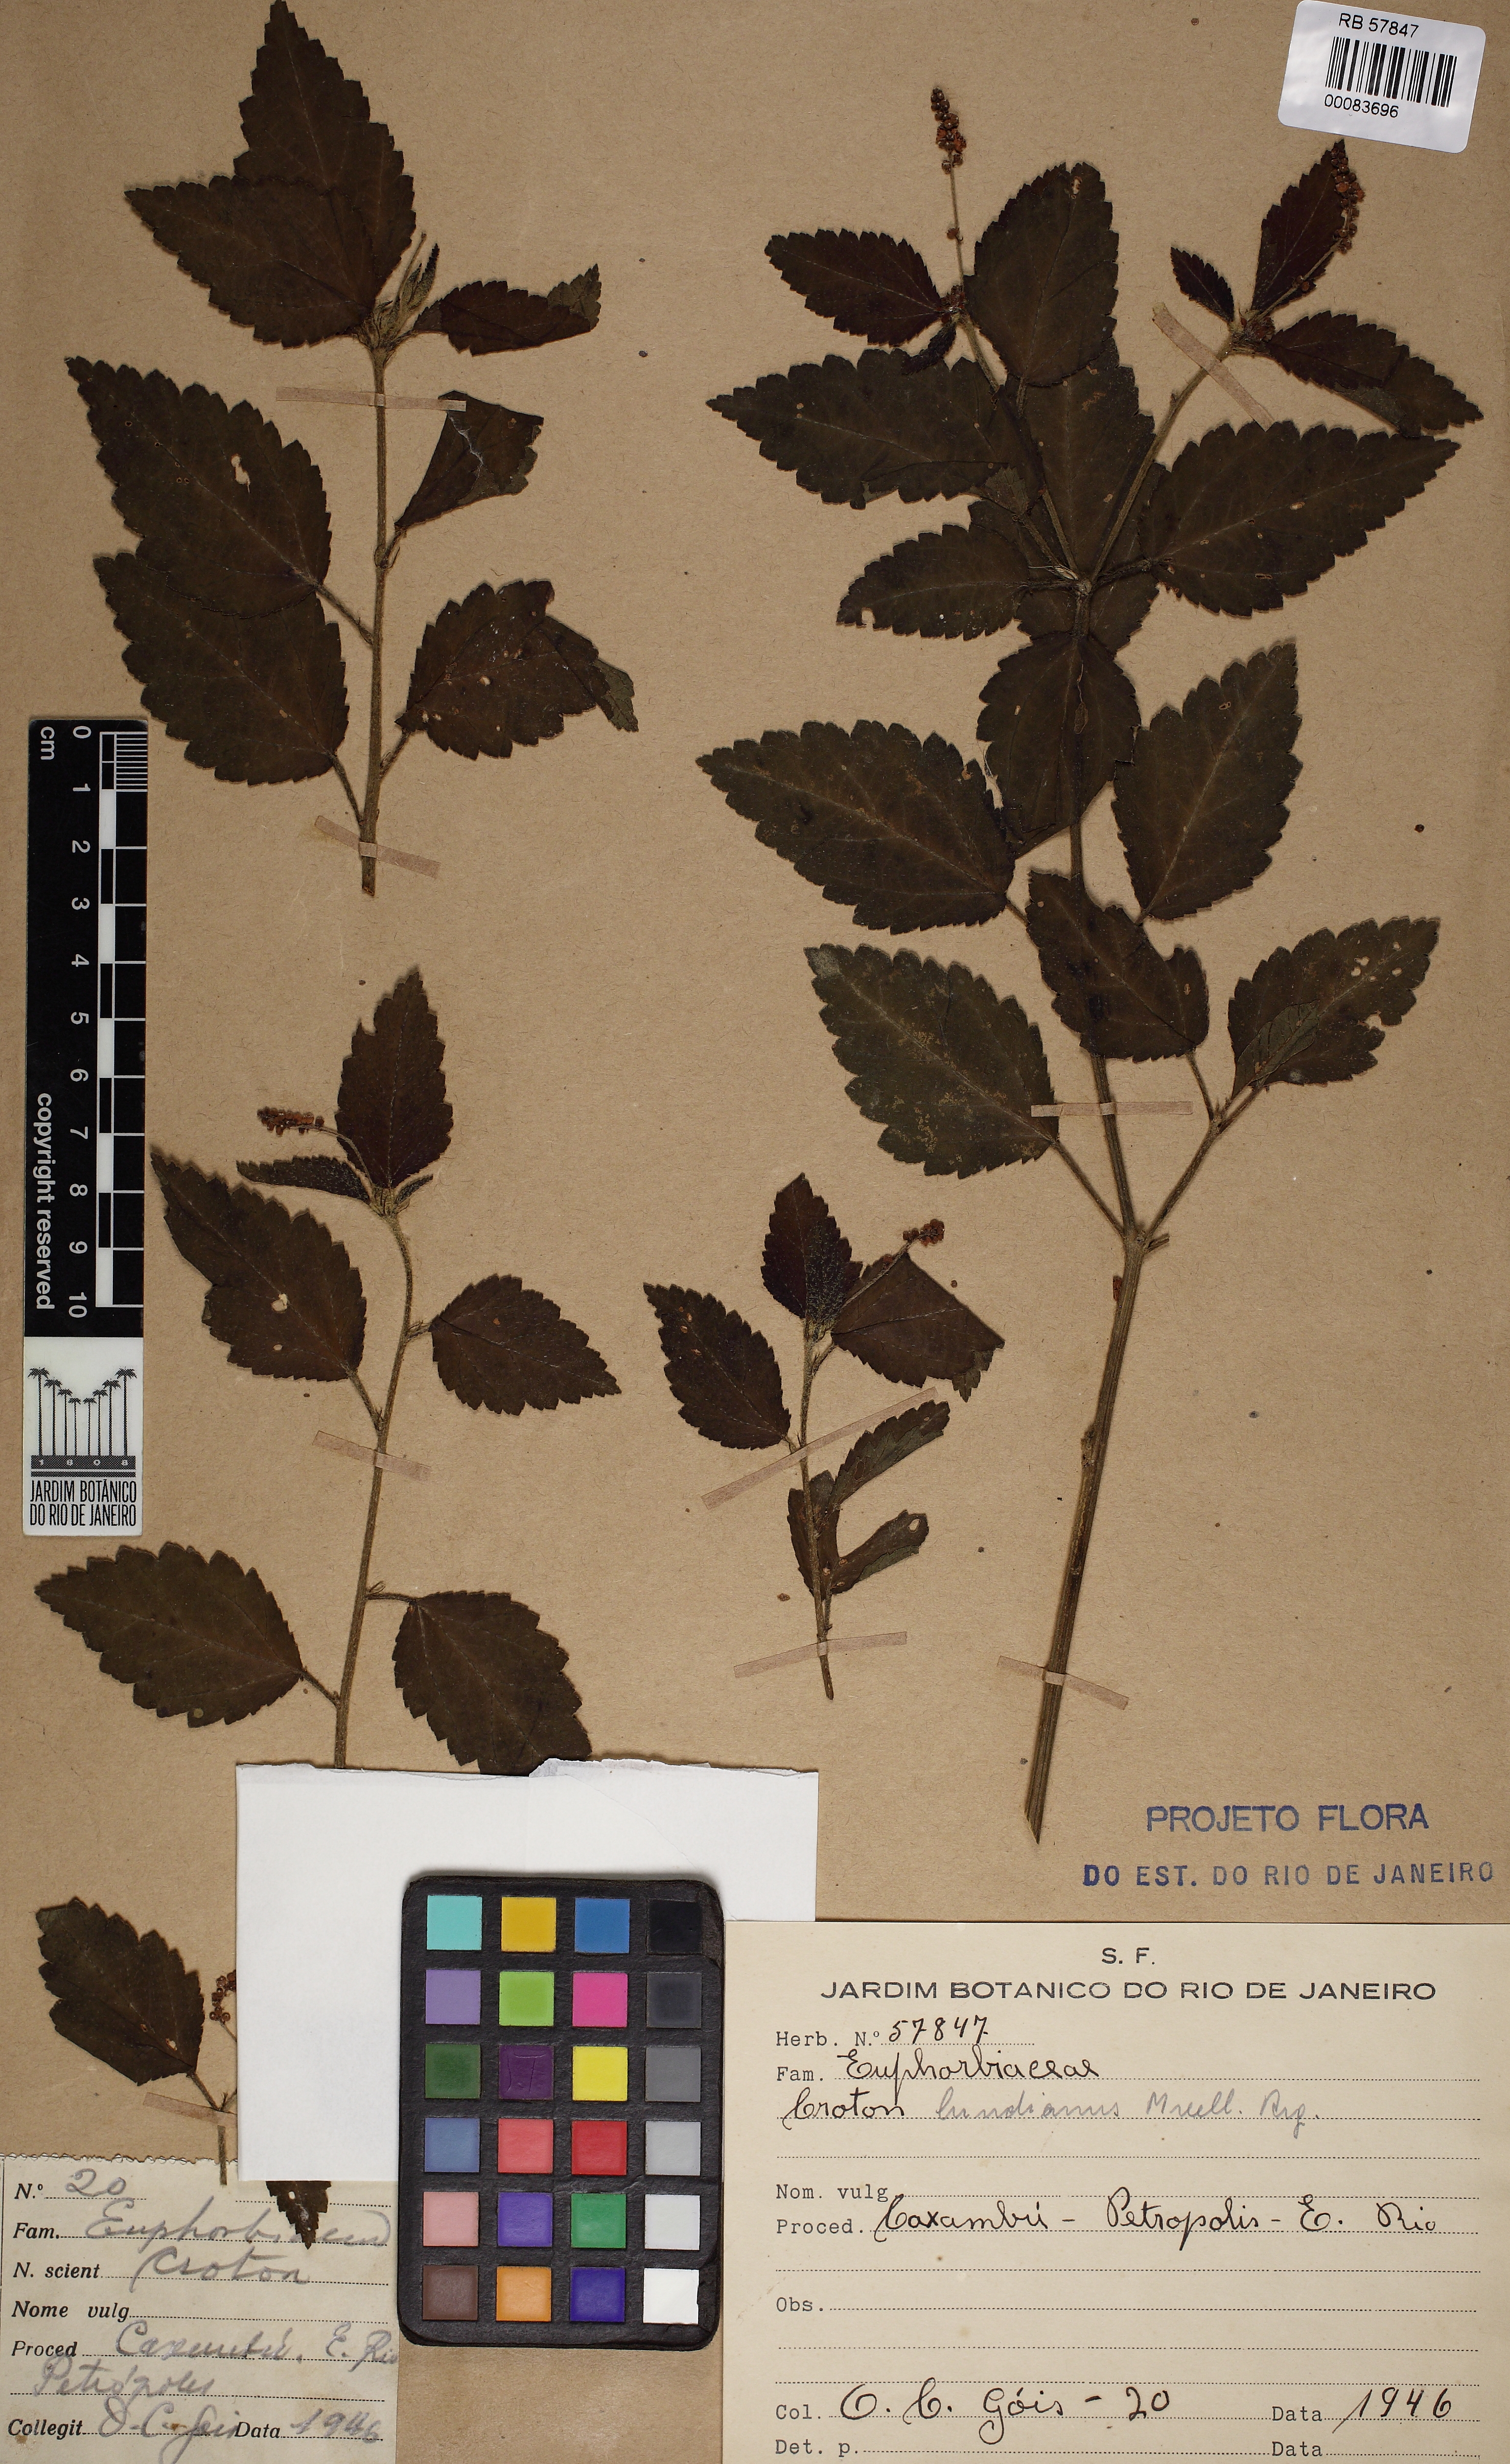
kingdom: Plantae
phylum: Tracheophyta
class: Magnoliopsida
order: Malpighiales
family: Euphorbiaceae
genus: Croton
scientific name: Croton lundianus
